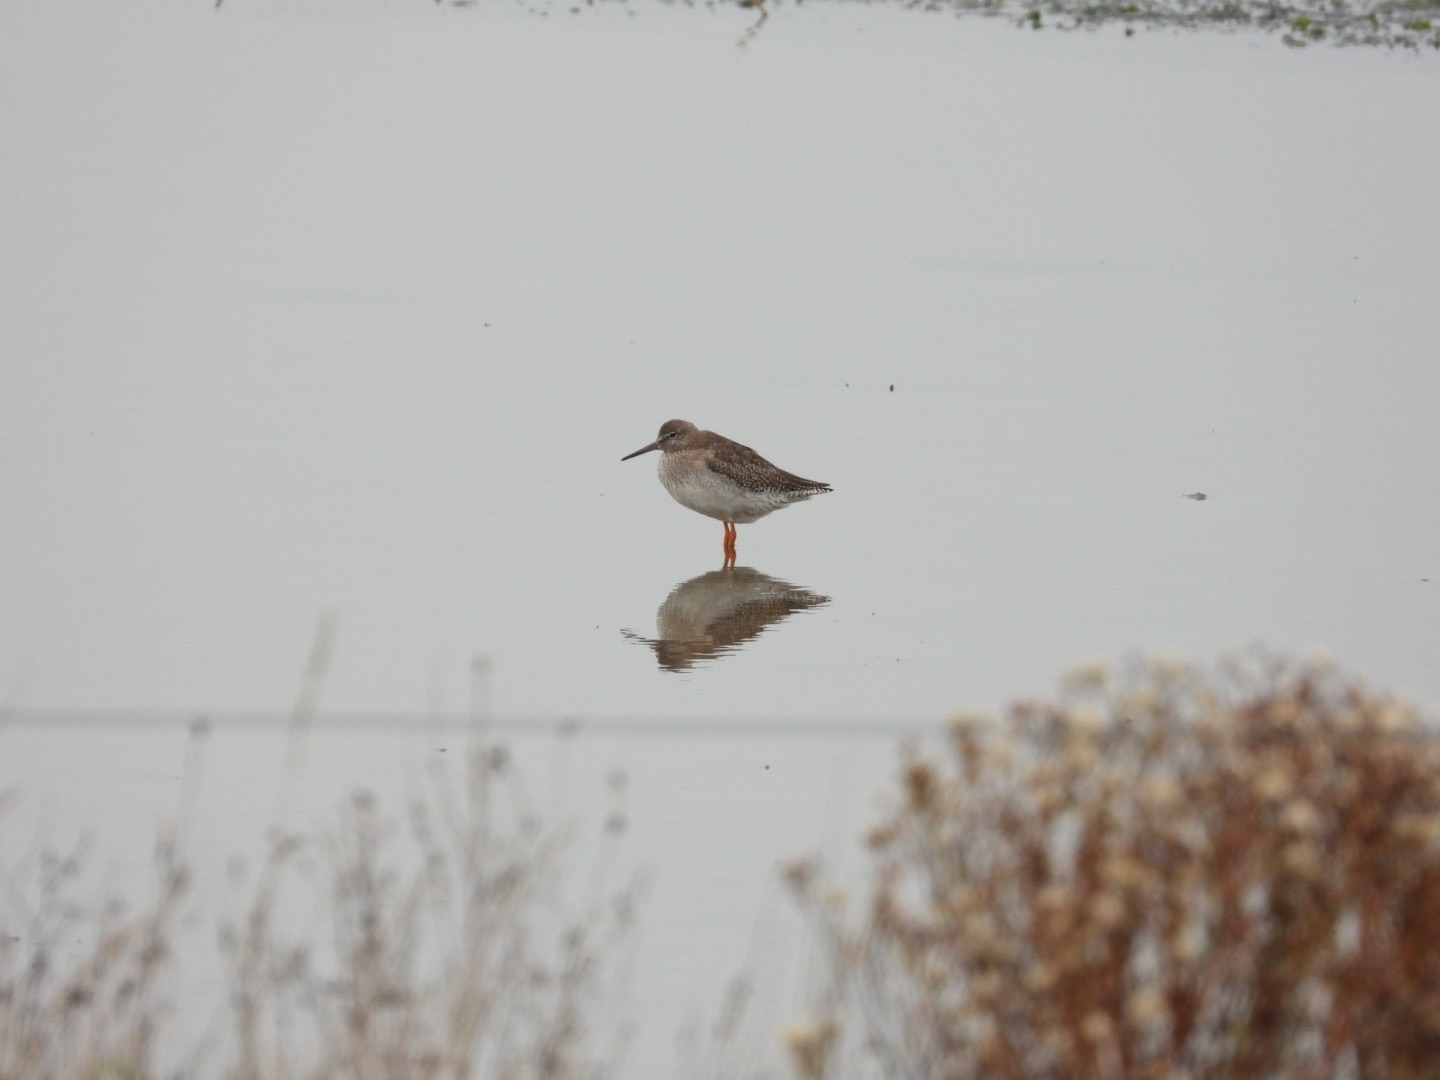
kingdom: Animalia
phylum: Chordata
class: Aves
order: Charadriiformes
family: Scolopacidae
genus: Tringa
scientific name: Tringa totanus
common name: Rødben
